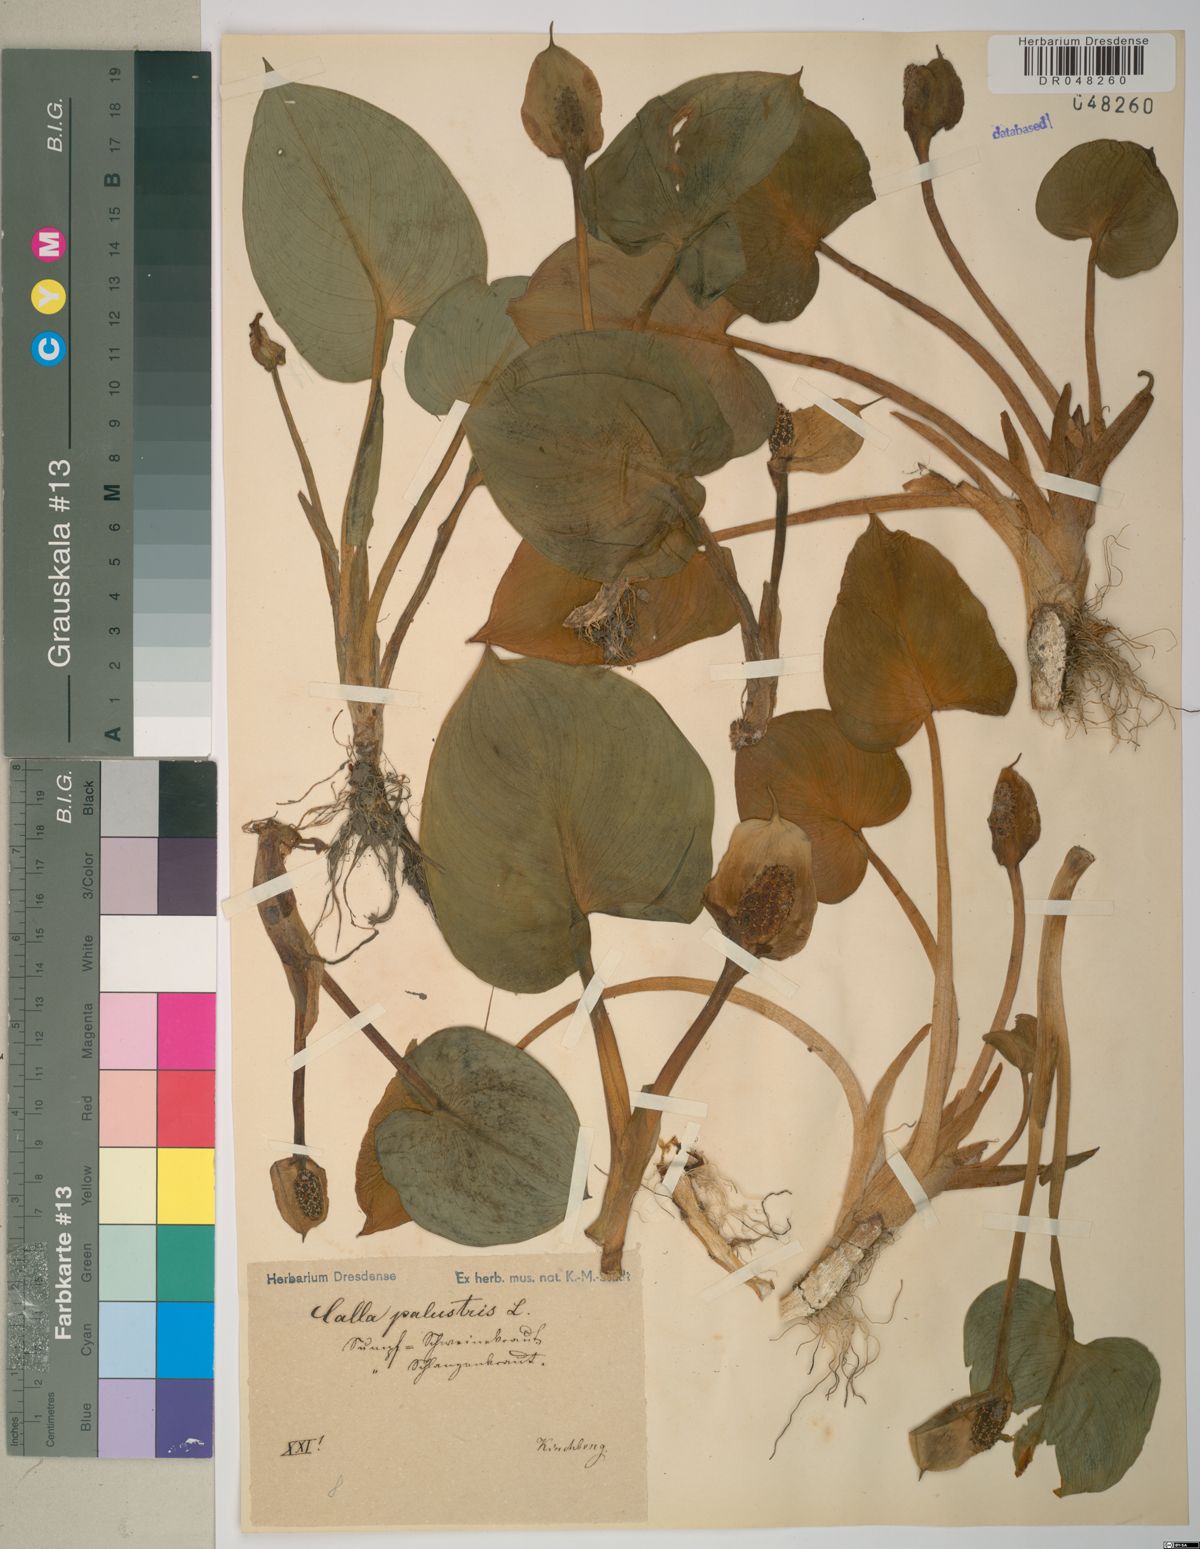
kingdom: Plantae
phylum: Tracheophyta
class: Liliopsida
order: Alismatales
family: Araceae
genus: Calla
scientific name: Calla palustris
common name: Bog arum
